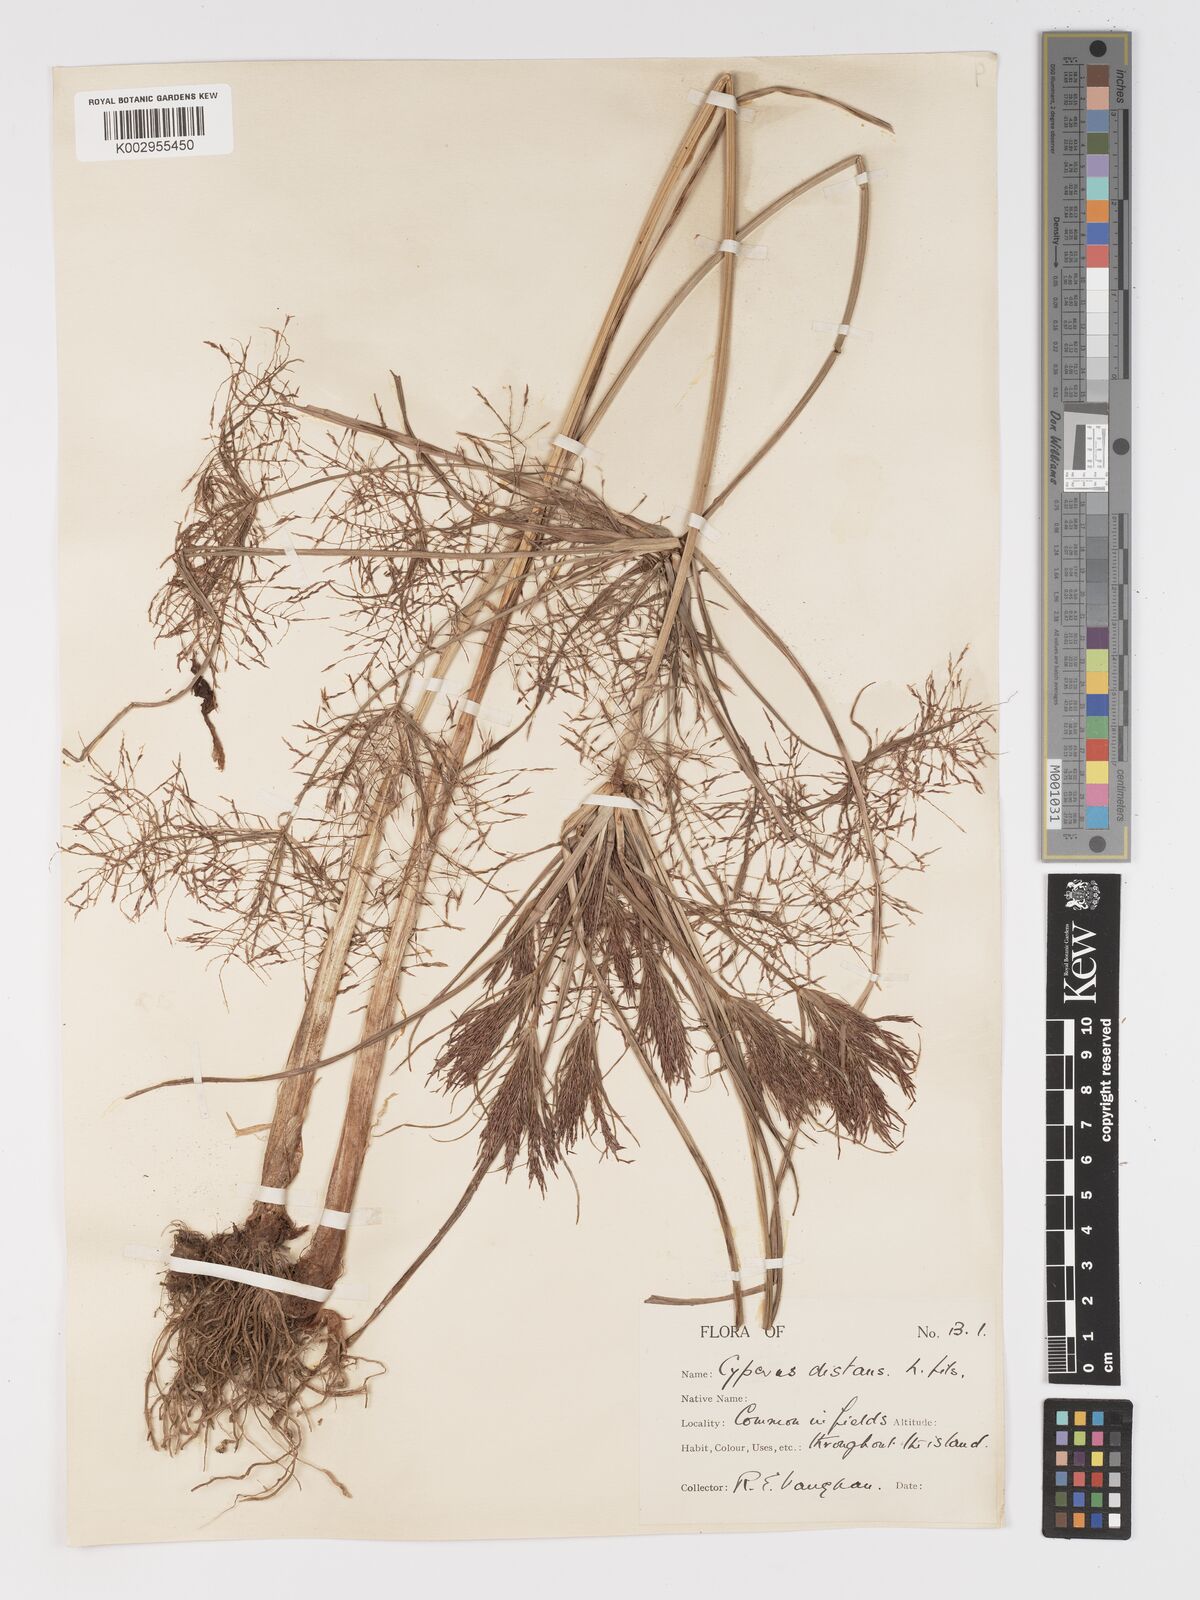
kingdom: Plantae
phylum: Tracheophyta
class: Liliopsida
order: Poales
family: Cyperaceae
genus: Cyperus
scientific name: Cyperus distans
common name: Slender cyperus
